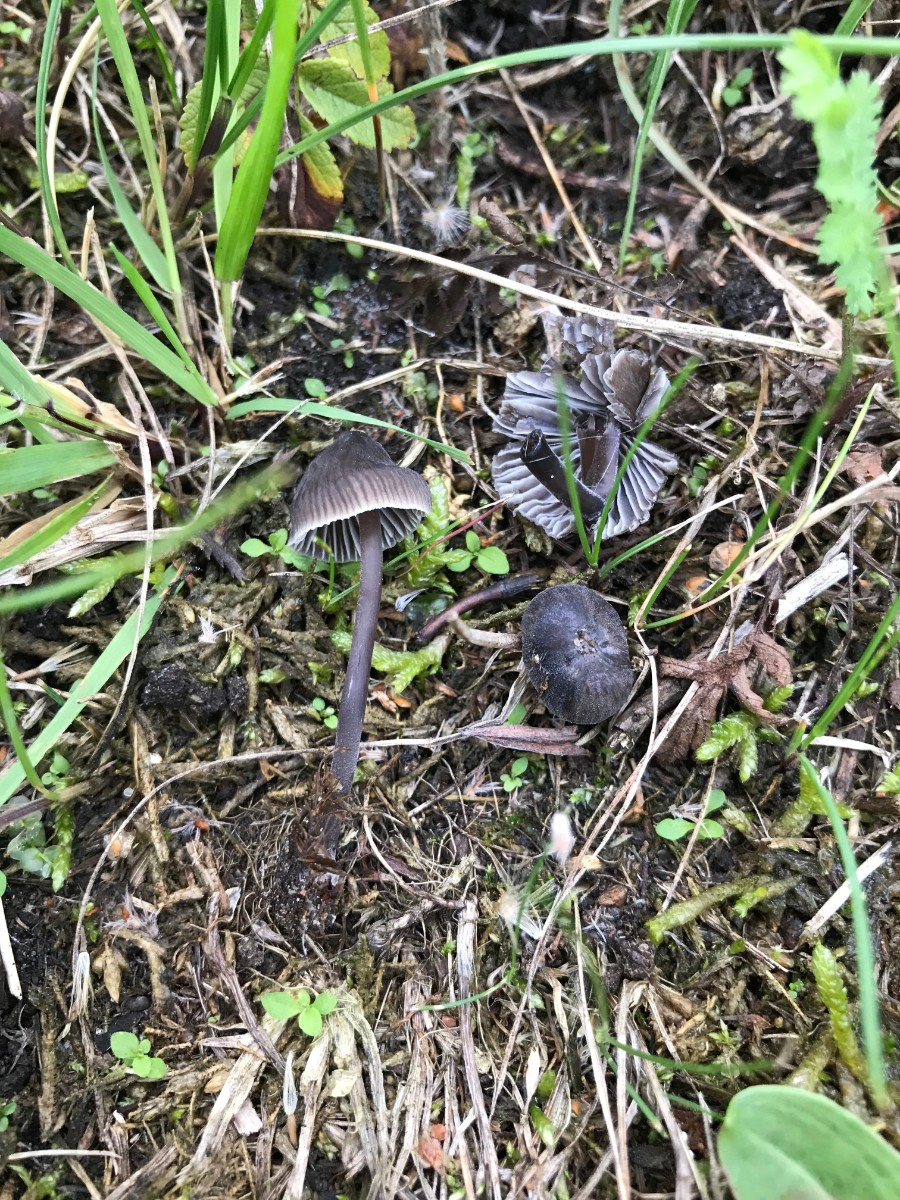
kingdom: Fungi
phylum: Basidiomycota
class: Agaricomycetes
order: Agaricales
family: Mycenaceae
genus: Mycena
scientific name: Mycena leptocephala
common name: klor-huesvamp
